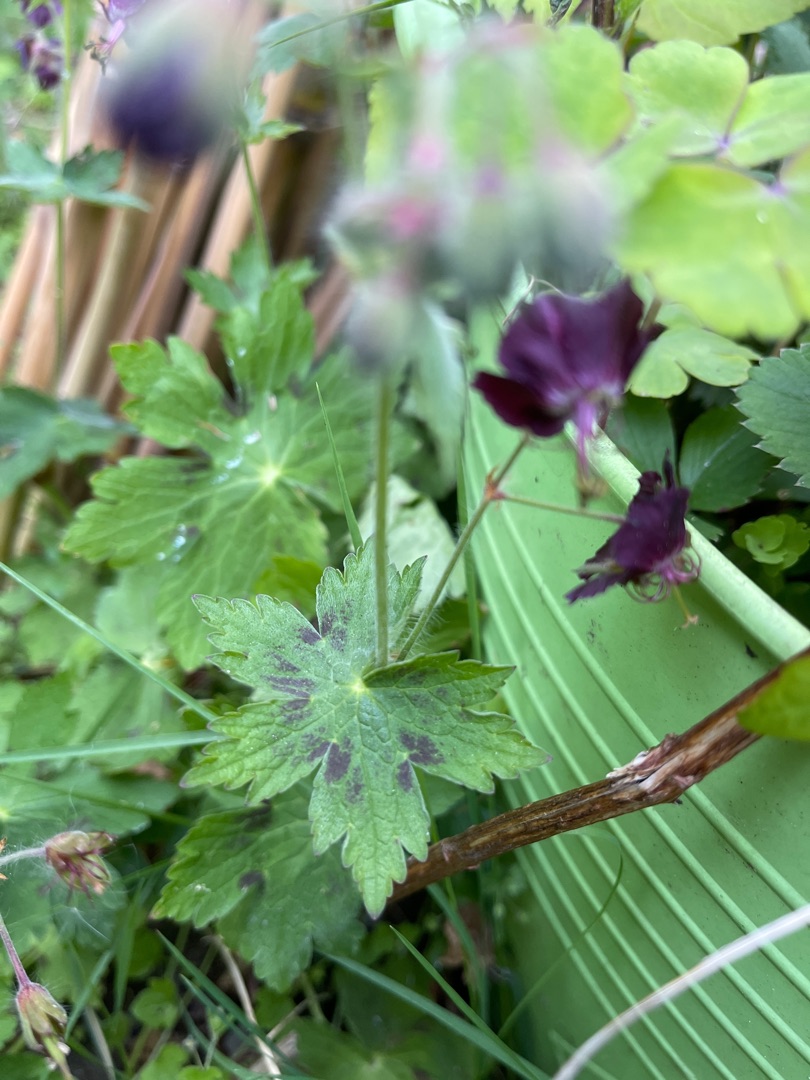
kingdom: Plantae
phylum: Tracheophyta
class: Magnoliopsida
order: Geraniales
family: Geraniaceae
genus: Geranium
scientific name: Geranium phaeum
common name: Bølgekronet storkenæb
